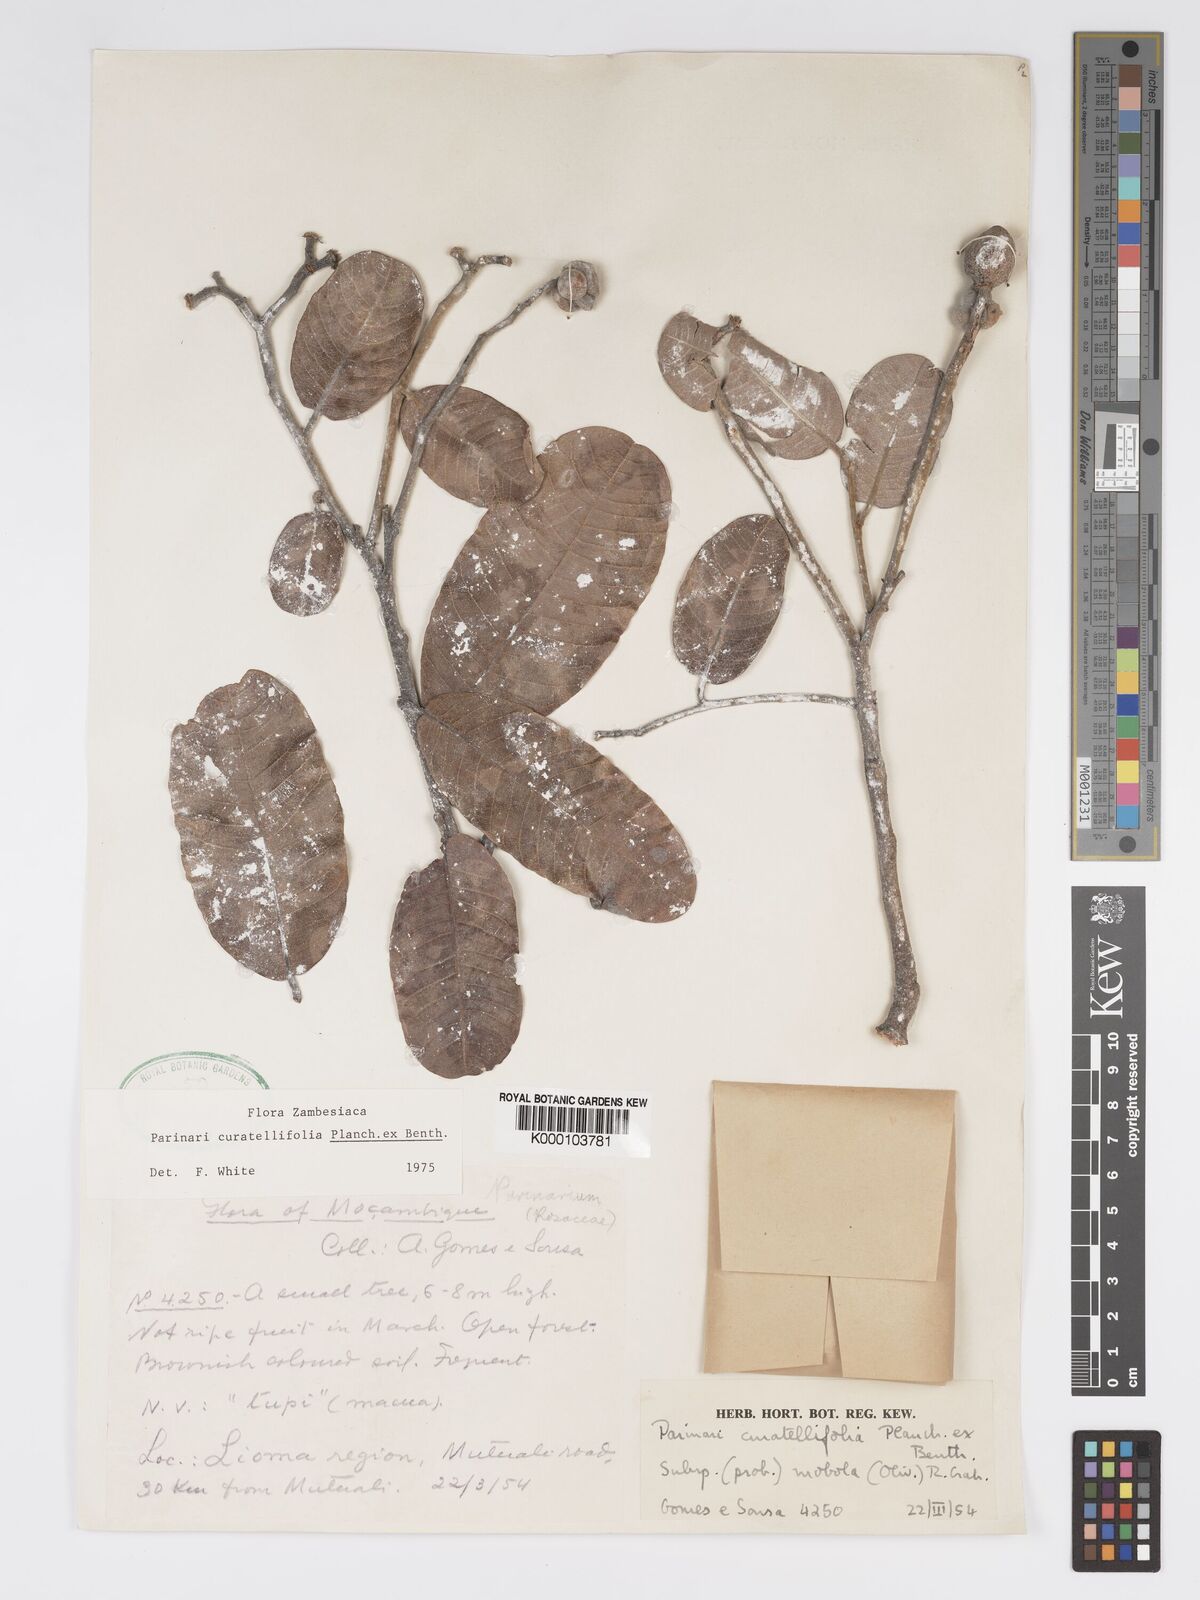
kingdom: Plantae
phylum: Tracheophyta
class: Magnoliopsida
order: Malpighiales
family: Chrysobalanaceae
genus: Parinari
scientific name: Parinari curatellifolia
